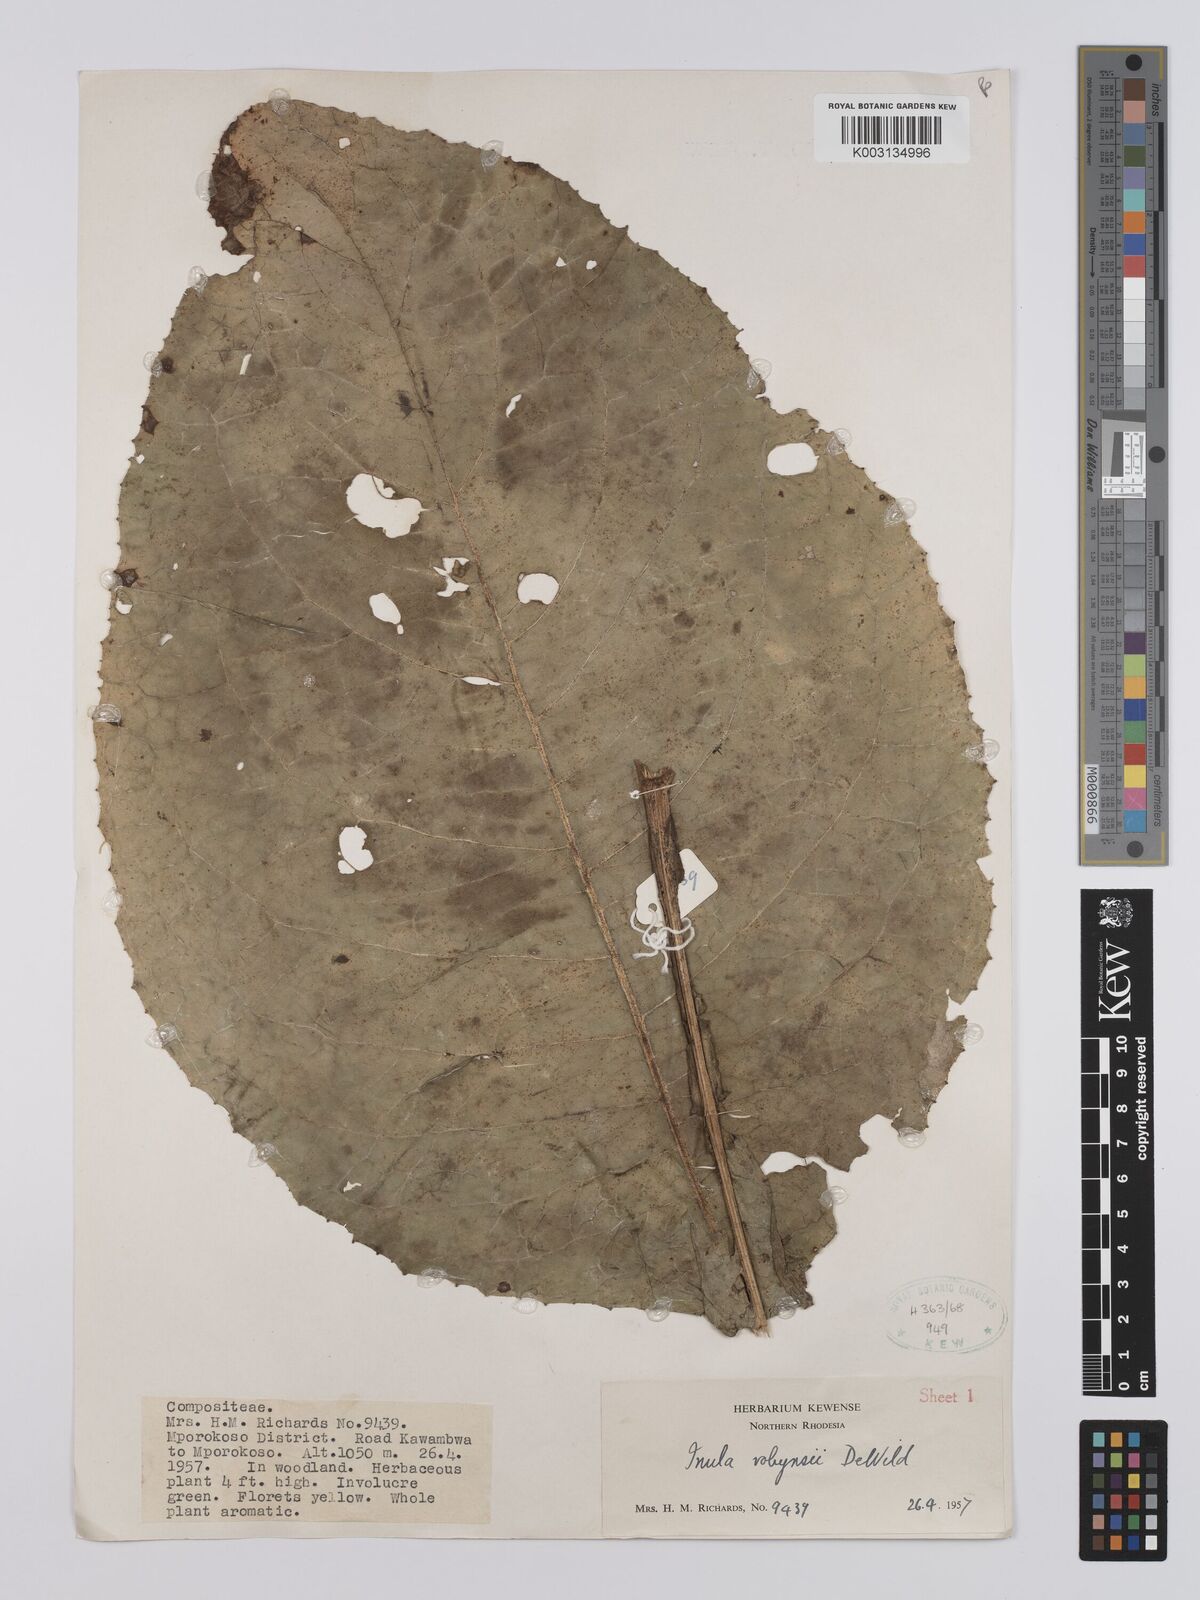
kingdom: Plantae
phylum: Tracheophyta
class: Magnoliopsida
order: Asterales
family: Asteraceae
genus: Inula
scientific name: Inula robynsii
